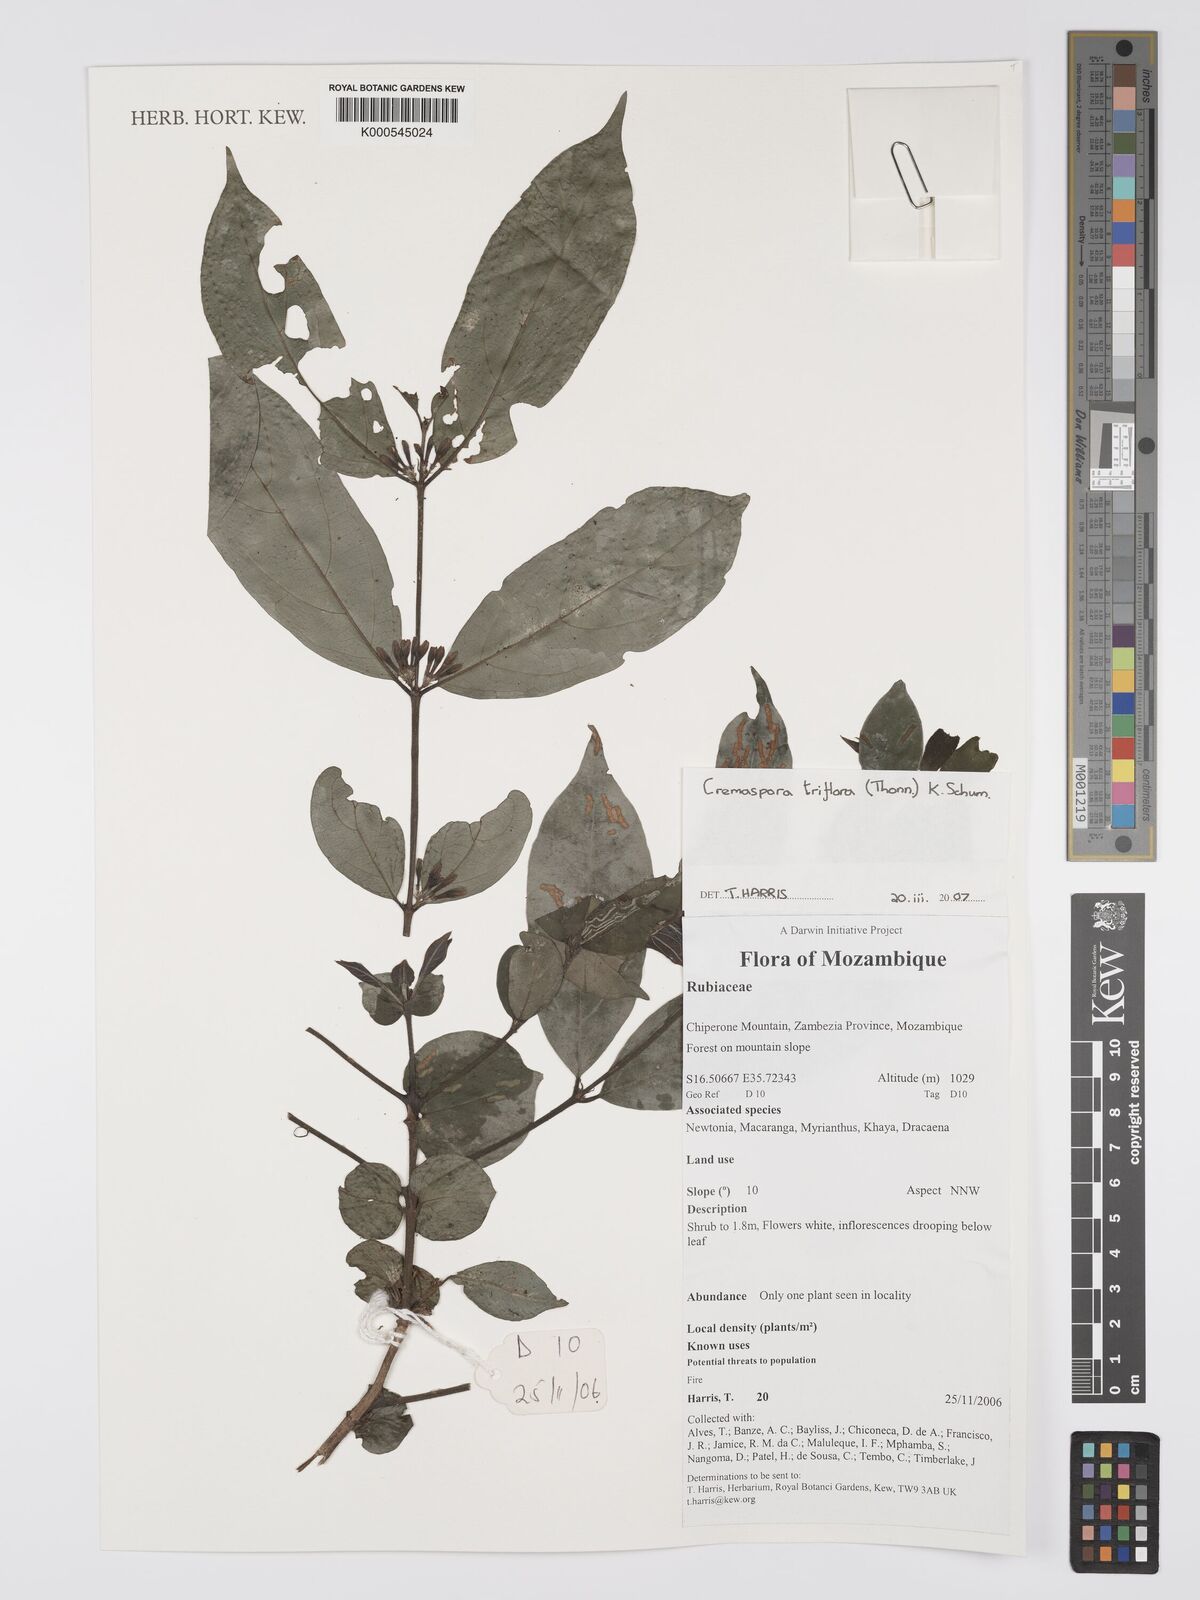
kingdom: Plantae
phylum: Tracheophyta
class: Magnoliopsida
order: Gentianales
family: Rubiaceae
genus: Cremaspora
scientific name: Cremaspora triflora
